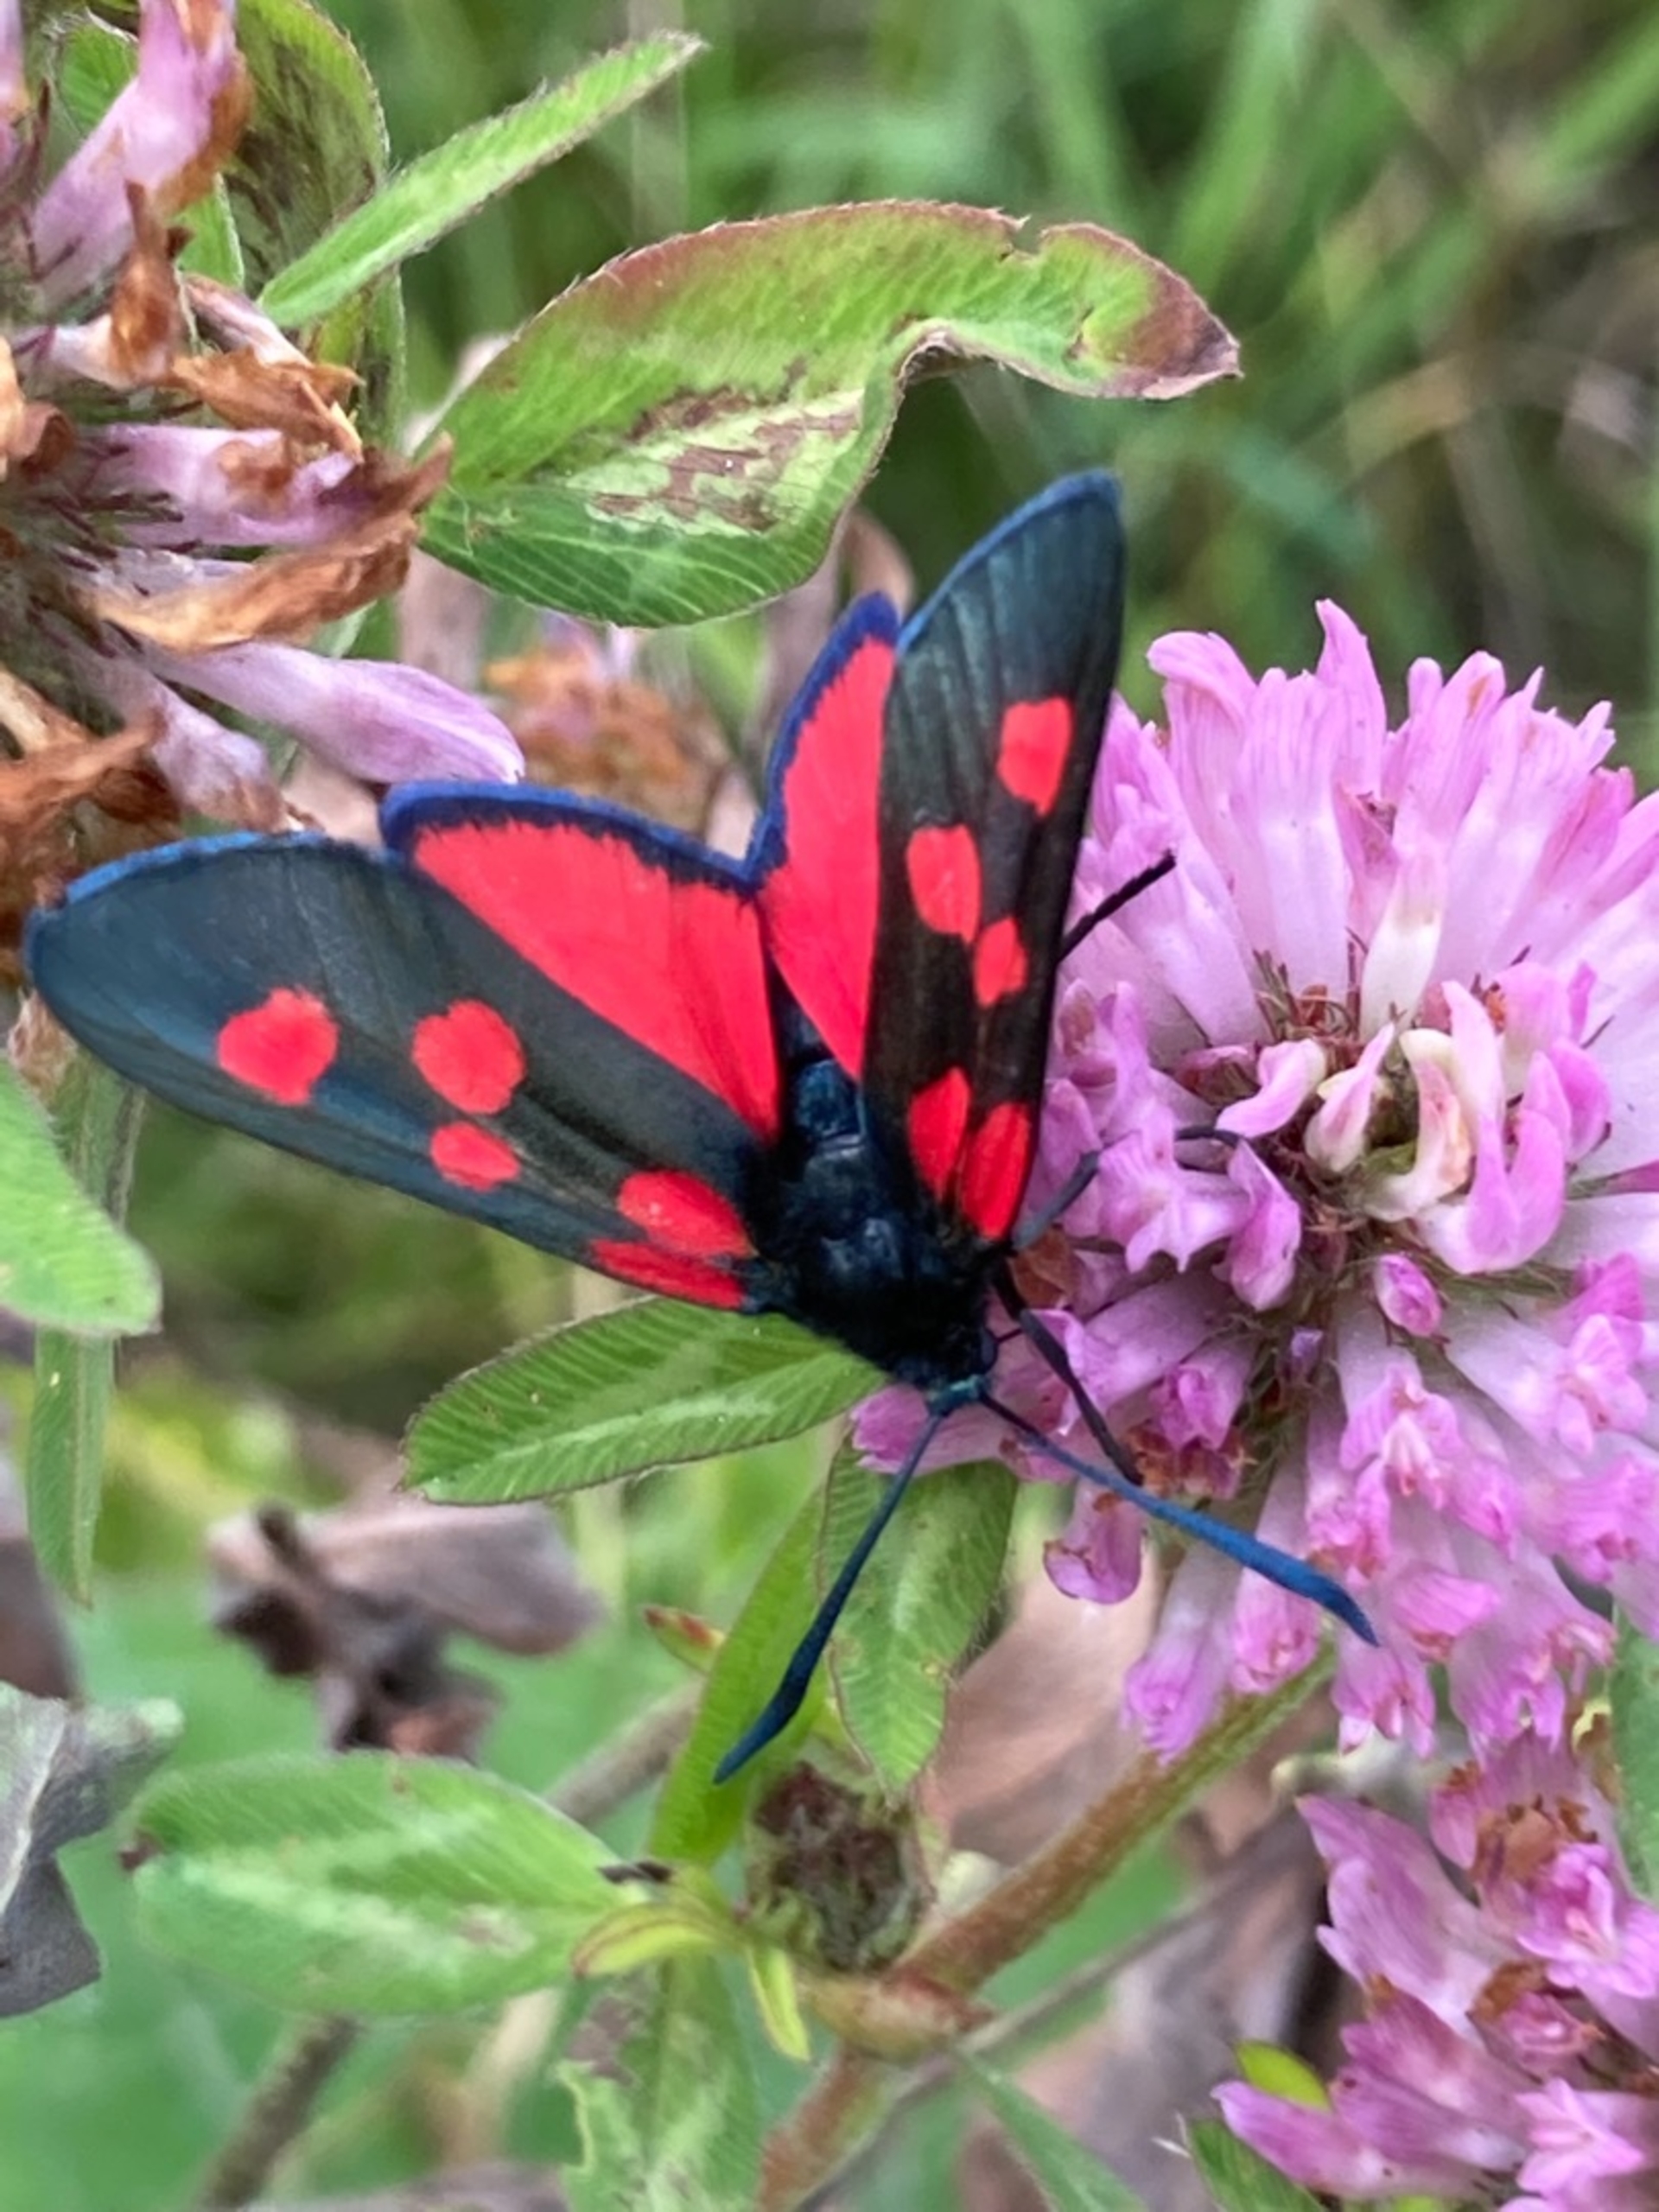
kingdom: Animalia
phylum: Arthropoda
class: Insecta
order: Lepidoptera
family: Zygaenidae
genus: Zygaena
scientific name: Zygaena lonicerae
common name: Femplettet køllesværmer
